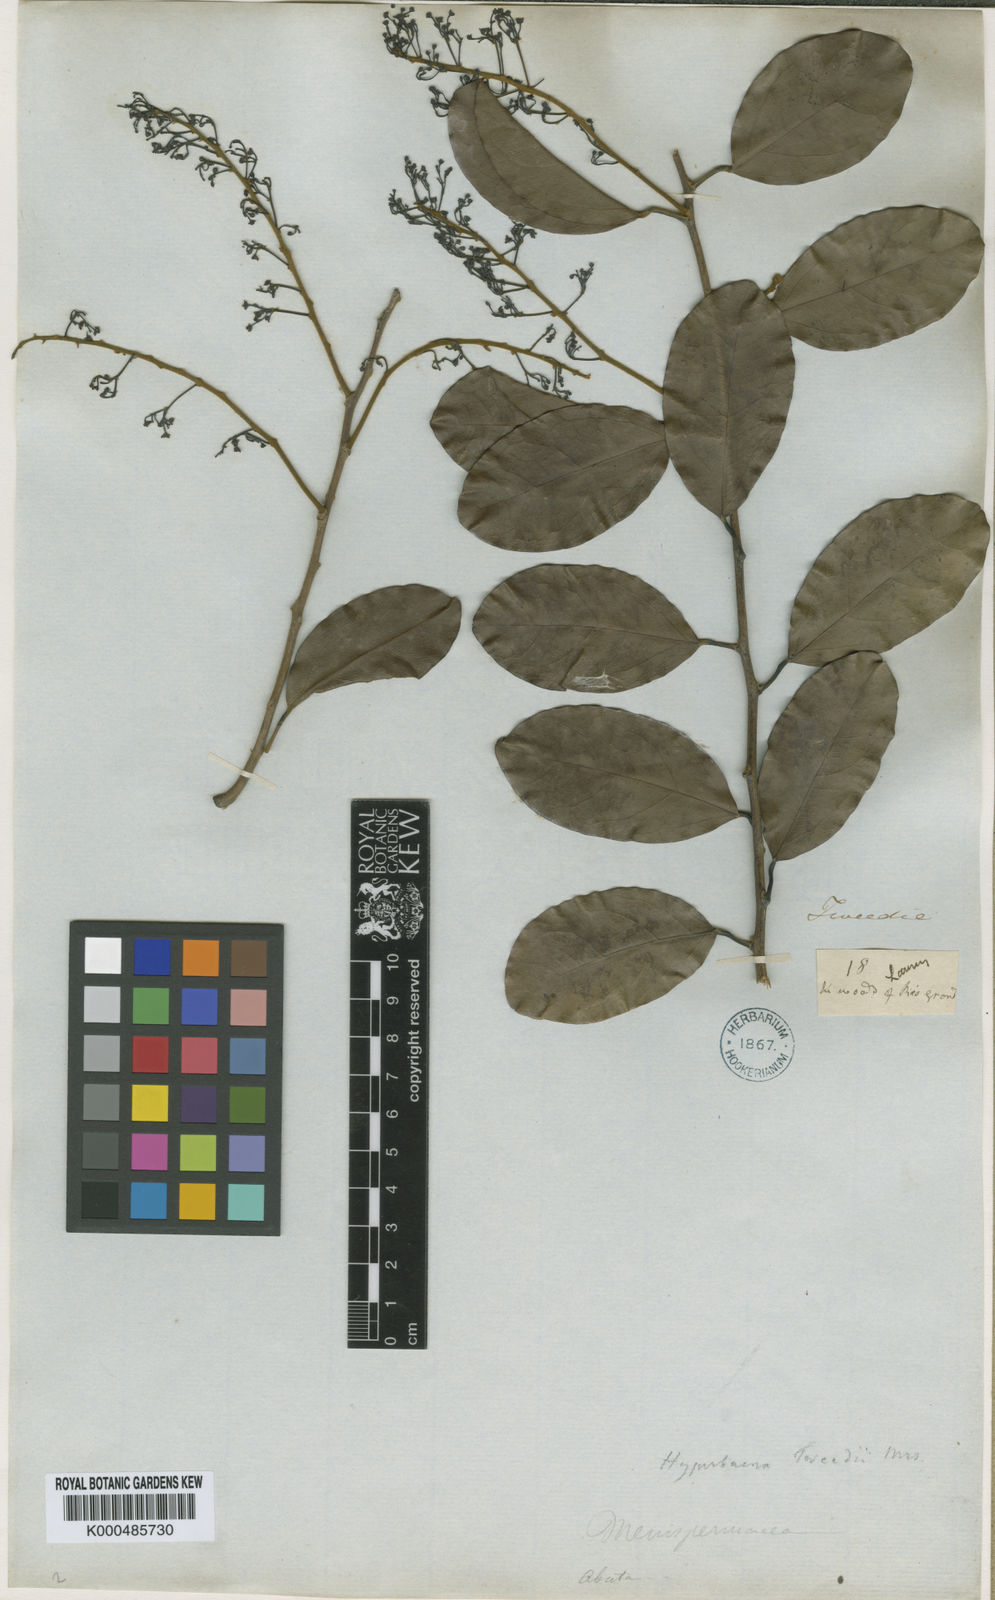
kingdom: Plantae
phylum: Tracheophyta
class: Magnoliopsida
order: Ranunculales
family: Menispermaceae
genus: Hyperbaena
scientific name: Hyperbaena domingensis
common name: Forest snakevine
